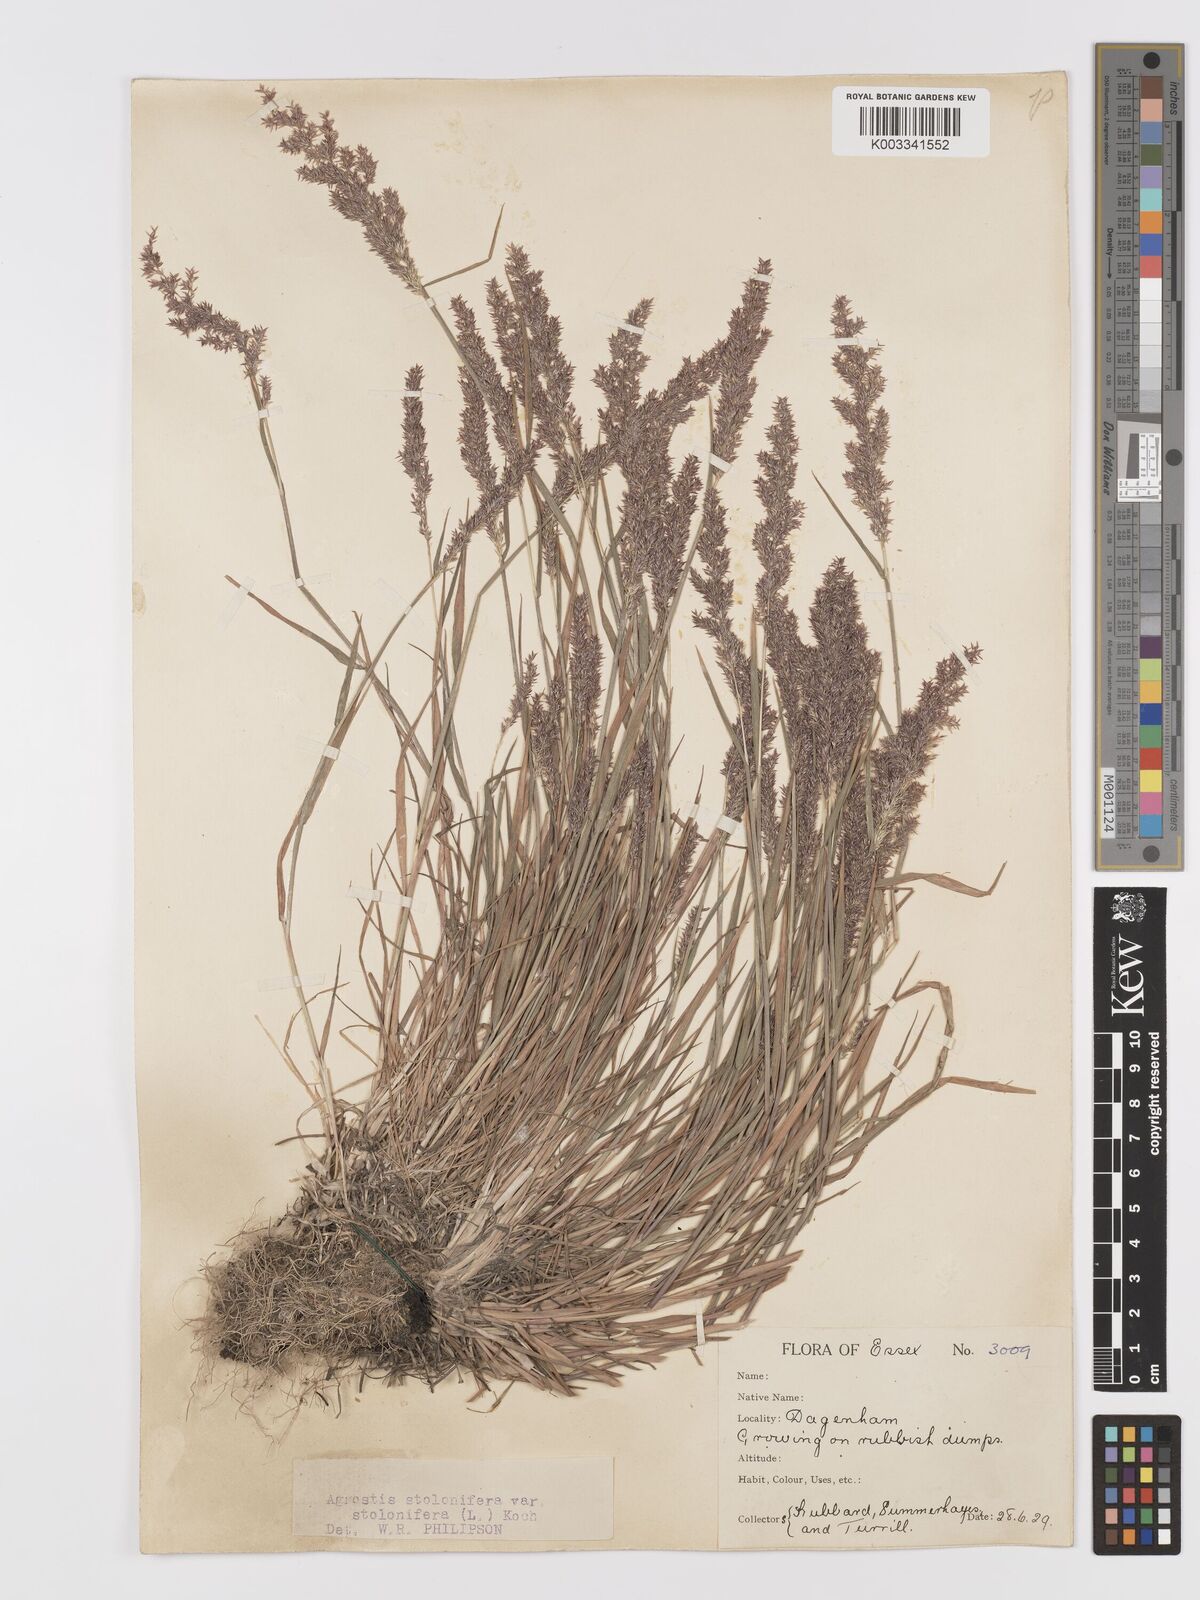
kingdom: Plantae
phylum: Tracheophyta
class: Liliopsida
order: Poales
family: Poaceae
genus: Agrostis
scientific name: Agrostis stolonifera
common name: Creeping bentgrass
